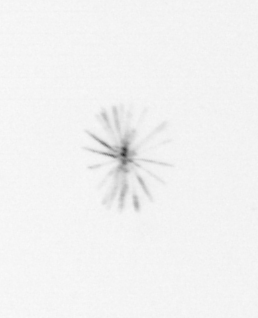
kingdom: Chromista
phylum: Ochrophyta
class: Bacillariophyceae
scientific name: Bacillariophyceae
